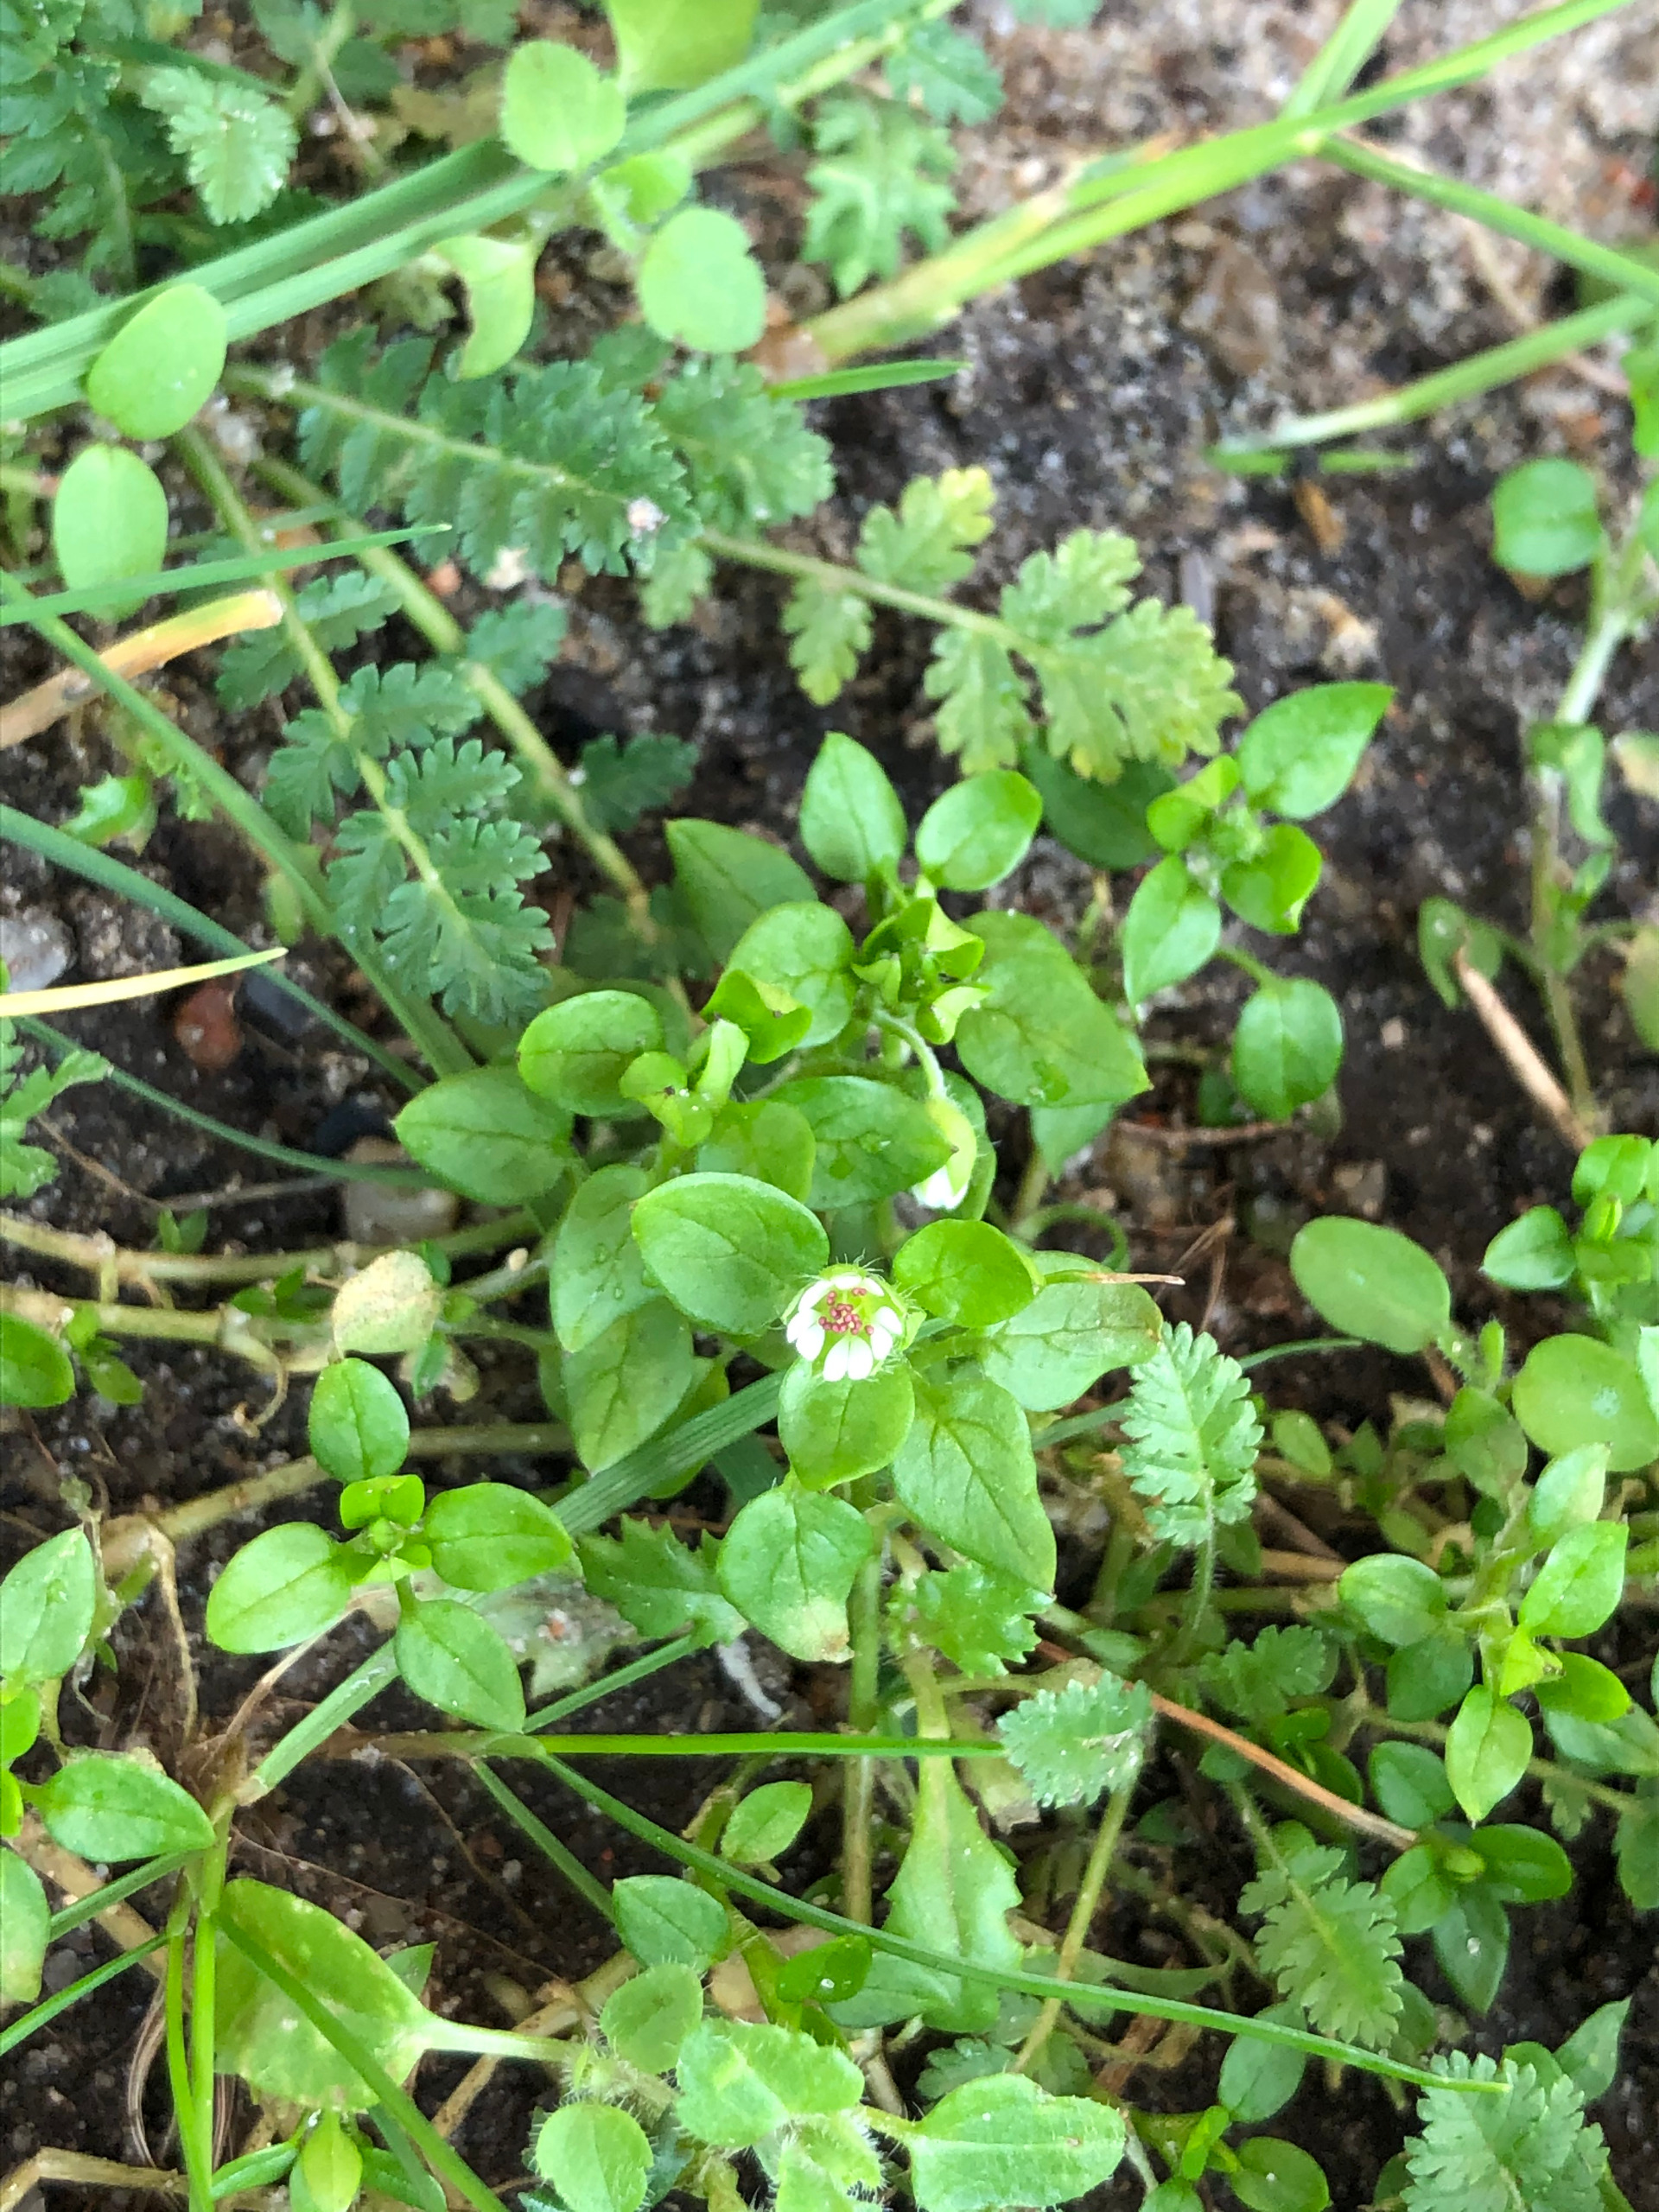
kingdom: Plantae
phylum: Tracheophyta
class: Magnoliopsida
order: Caryophyllales
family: Caryophyllaceae
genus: Stellaria
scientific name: Stellaria media
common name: Almindelig fuglegræs
